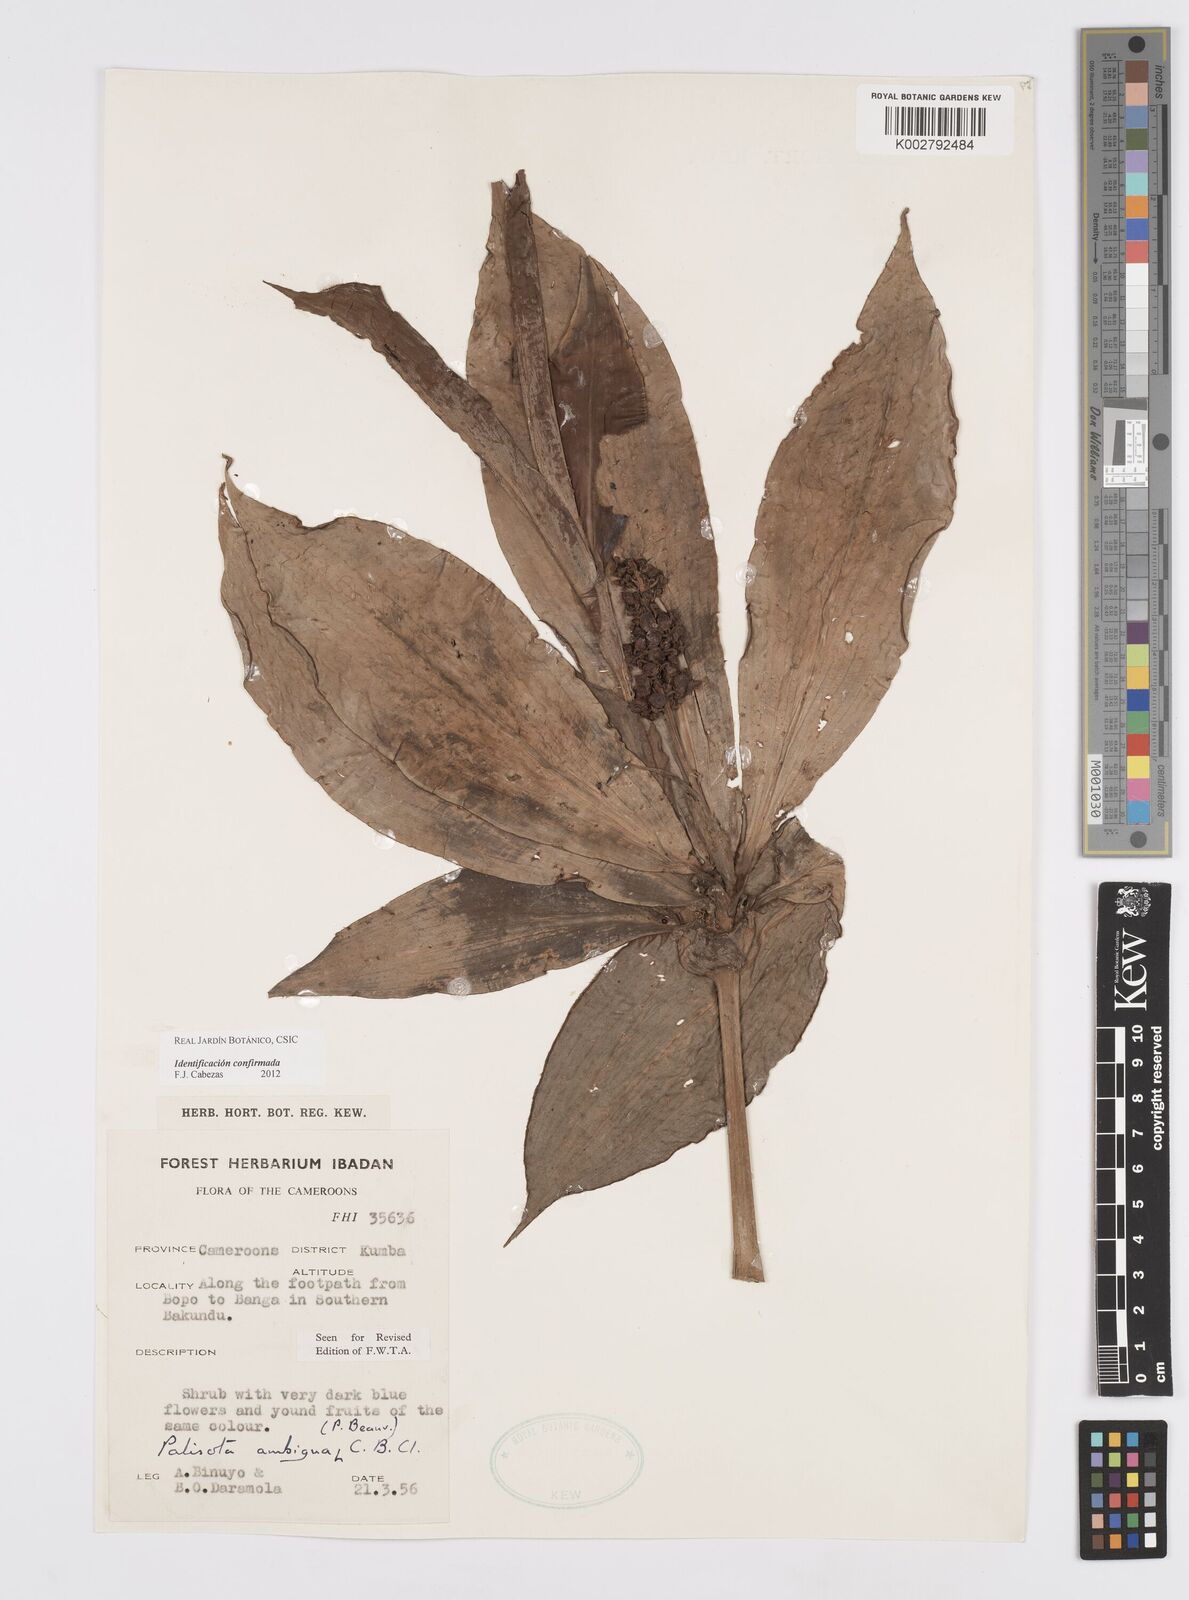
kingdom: Plantae
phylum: Tracheophyta
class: Liliopsida
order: Commelinales
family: Commelinaceae
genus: Palisota
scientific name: Palisota ambigua
